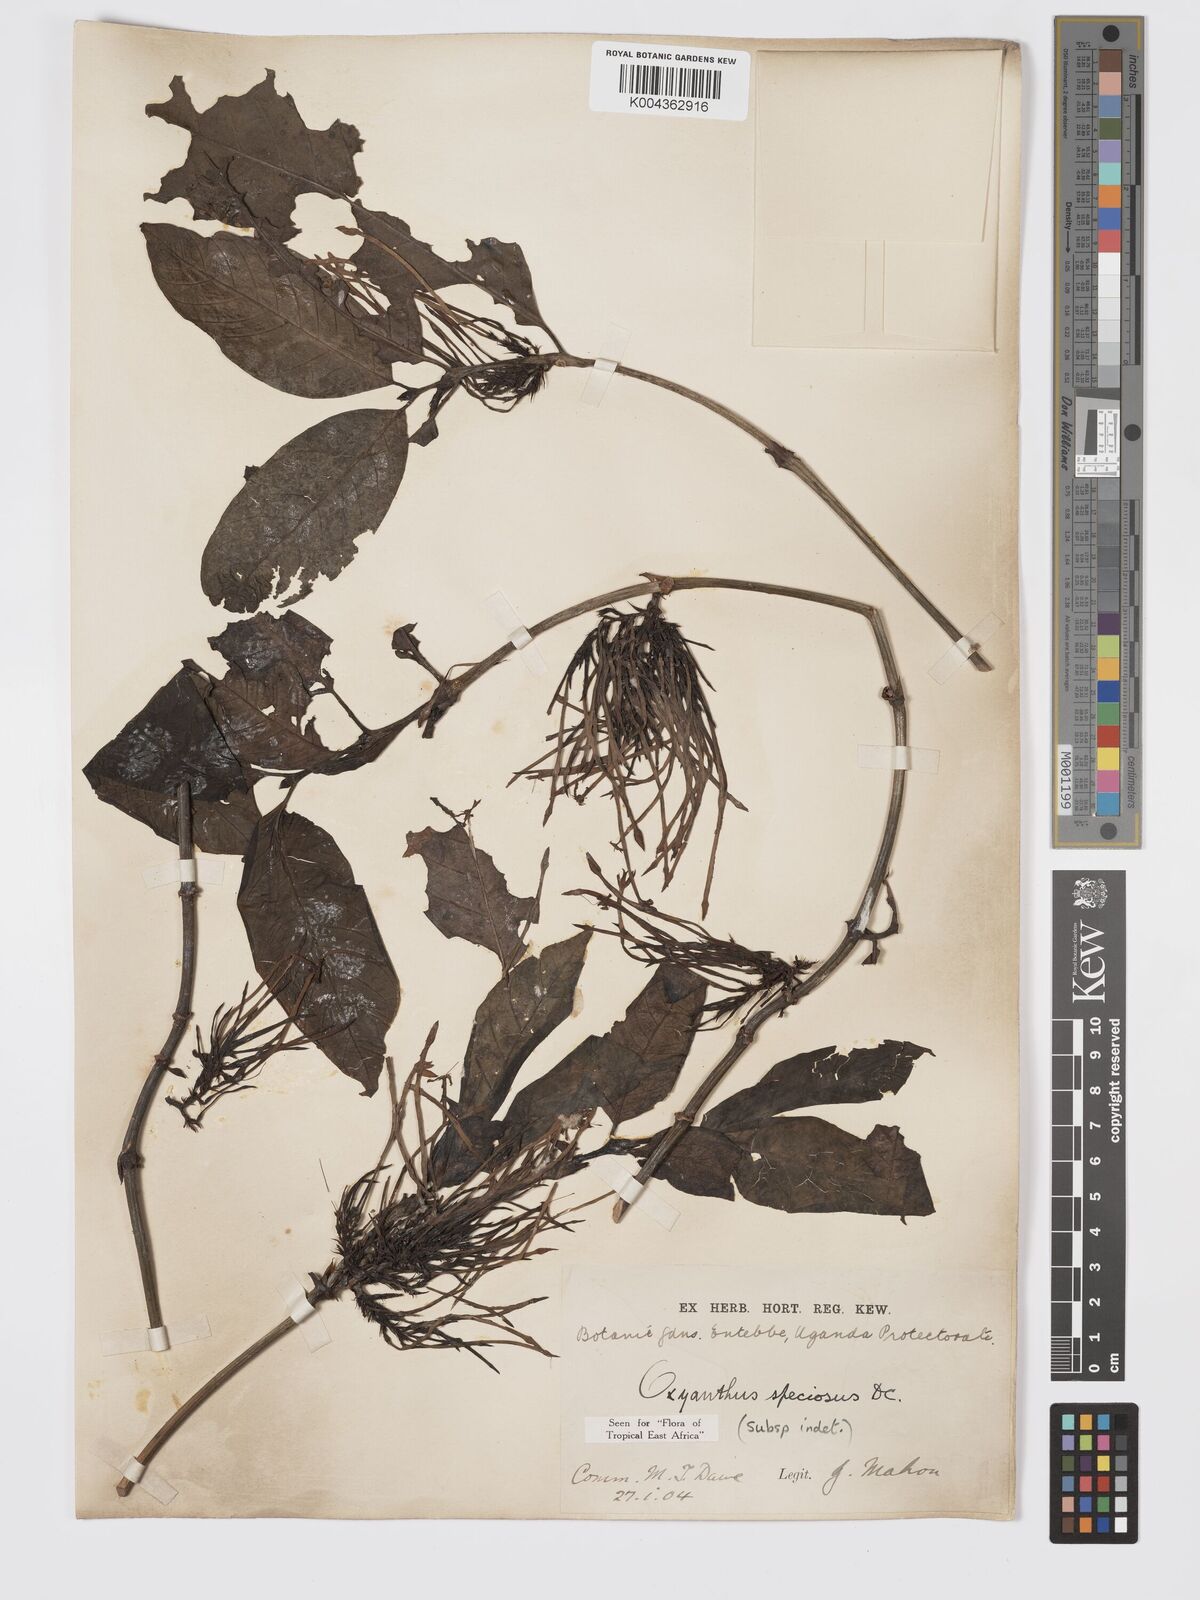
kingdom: Plantae
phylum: Tracheophyta
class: Magnoliopsida
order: Gentianales
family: Rubiaceae
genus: Oxyanthus
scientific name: Oxyanthus
